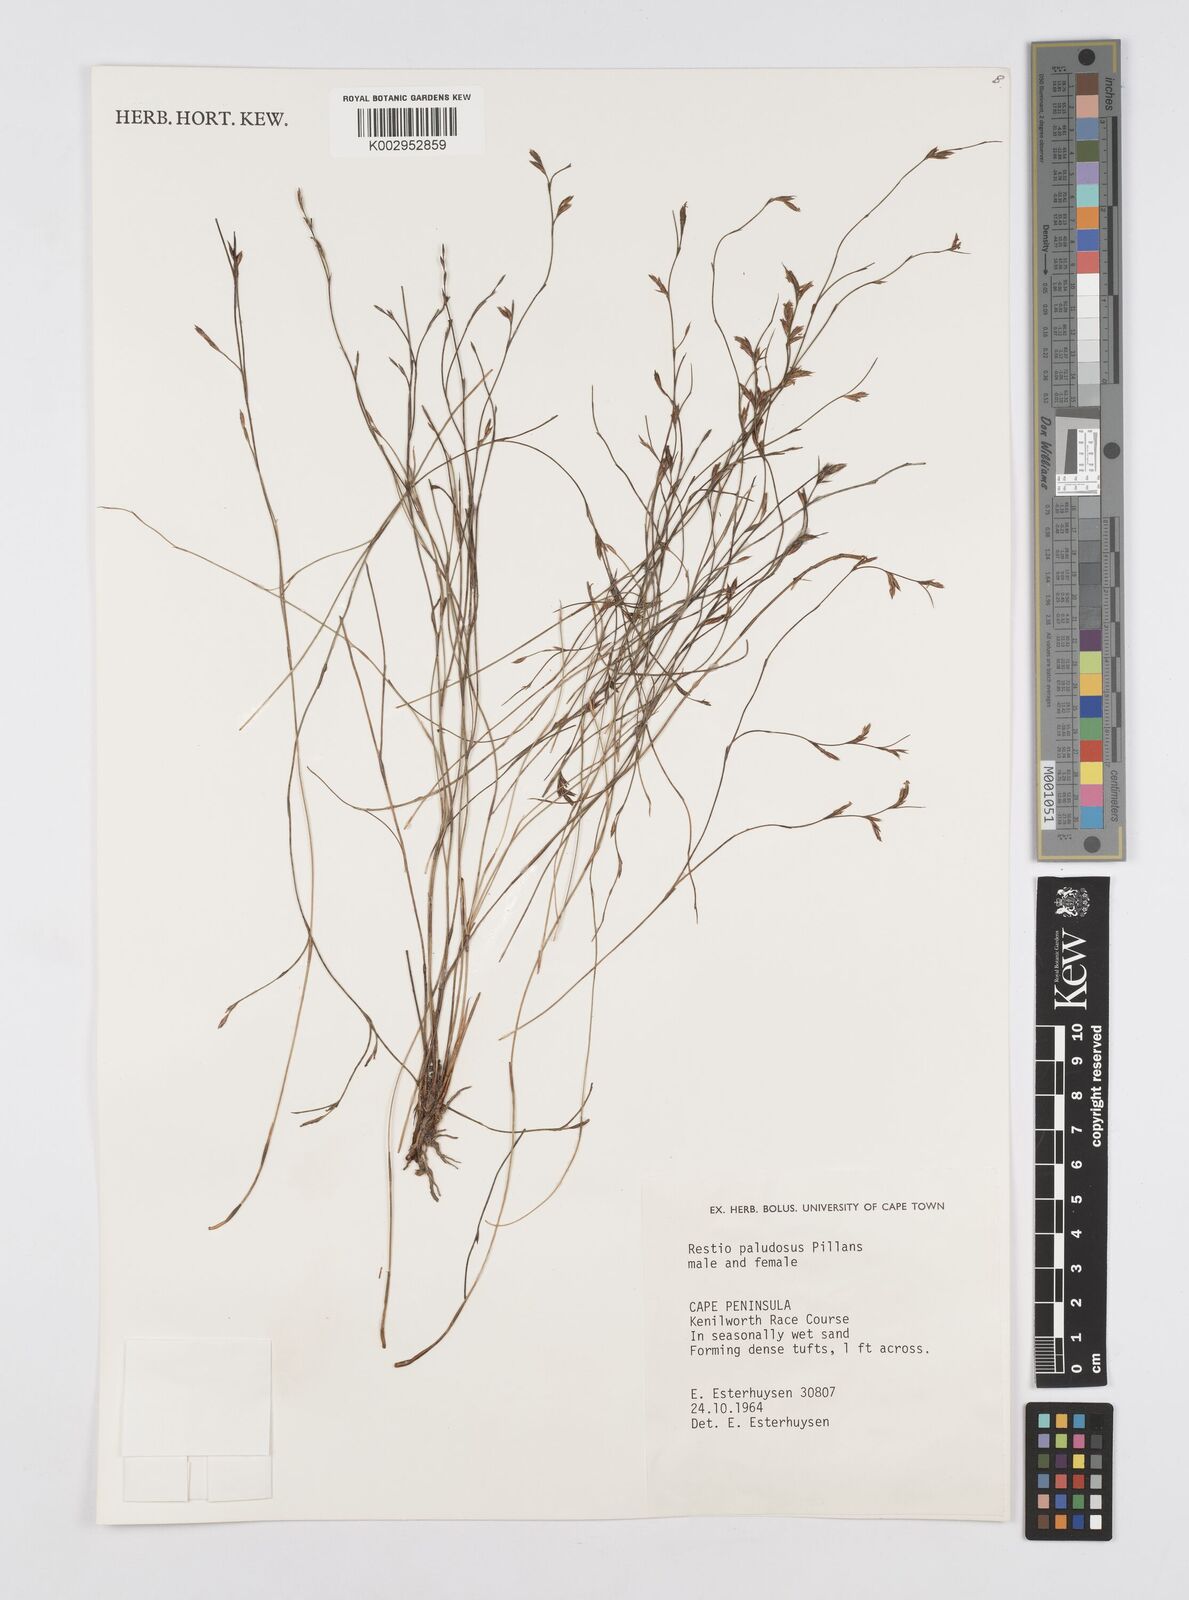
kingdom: Plantae
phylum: Tracheophyta
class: Liliopsida
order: Poales
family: Restionaceae
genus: Restio
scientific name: Restio paludosus
